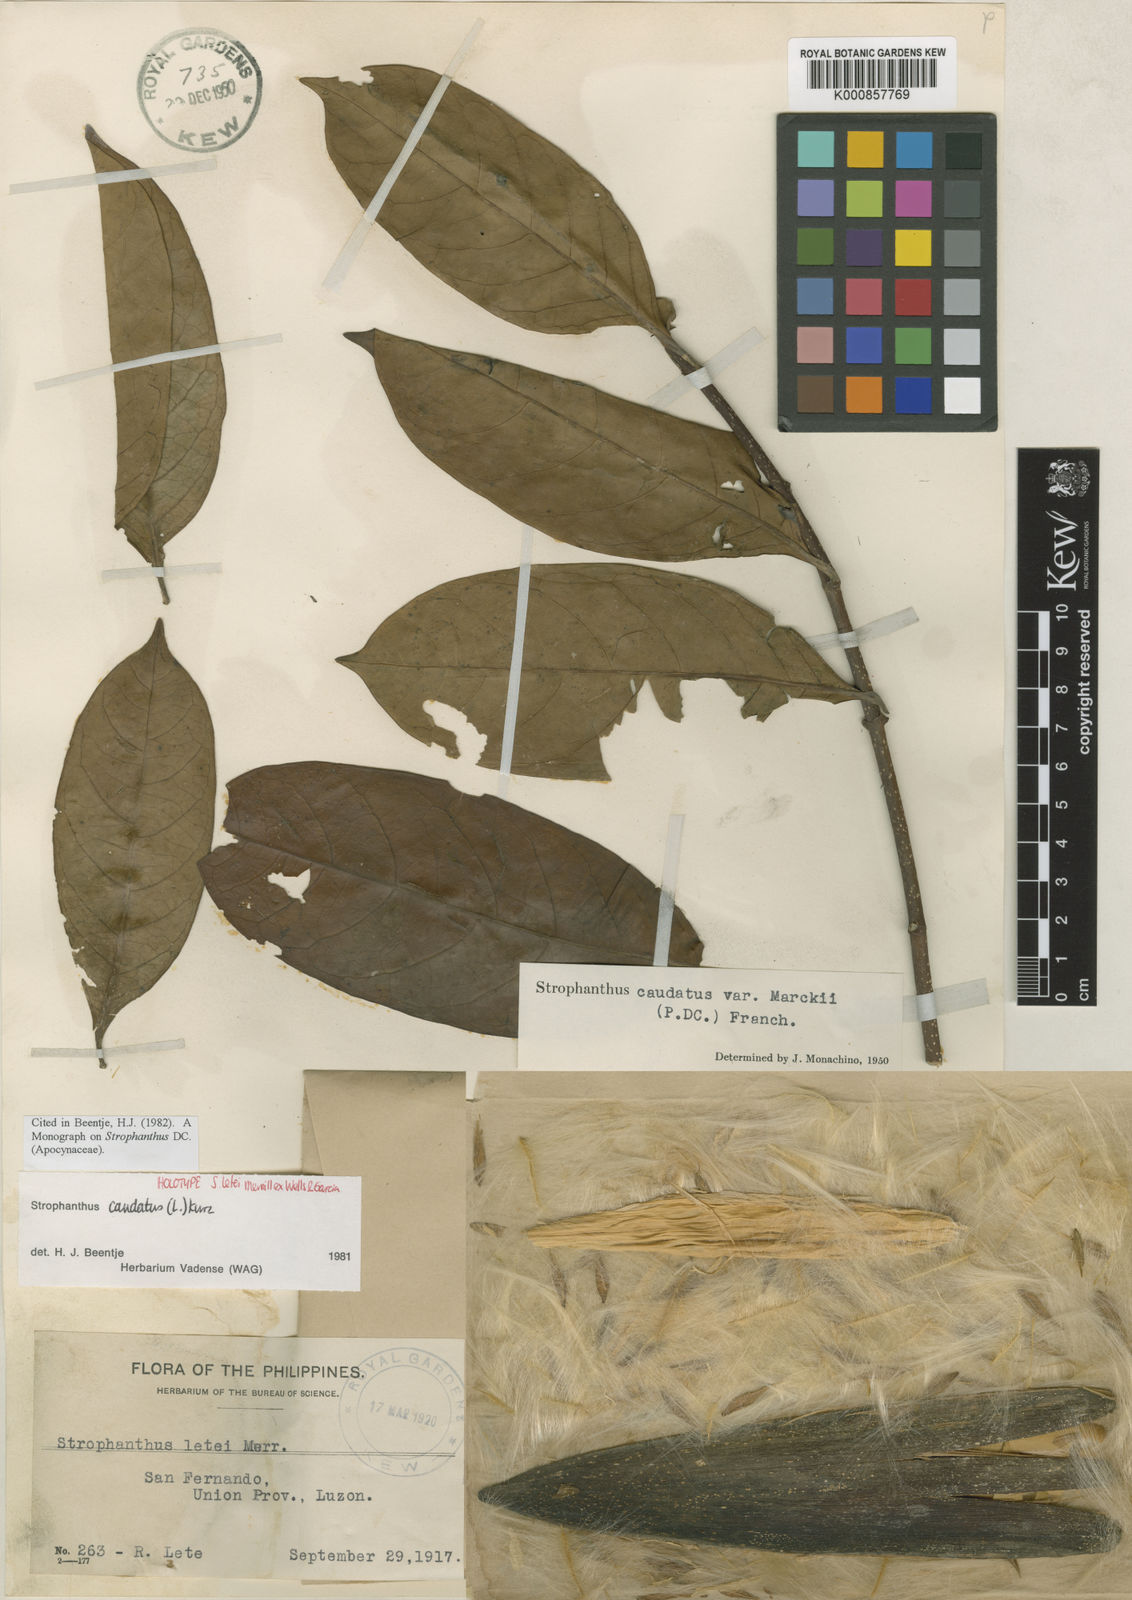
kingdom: Plantae
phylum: Tracheophyta
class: Magnoliopsida
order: Gentianales
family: Apocynaceae
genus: Strophanthus
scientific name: Strophanthus caudatus
